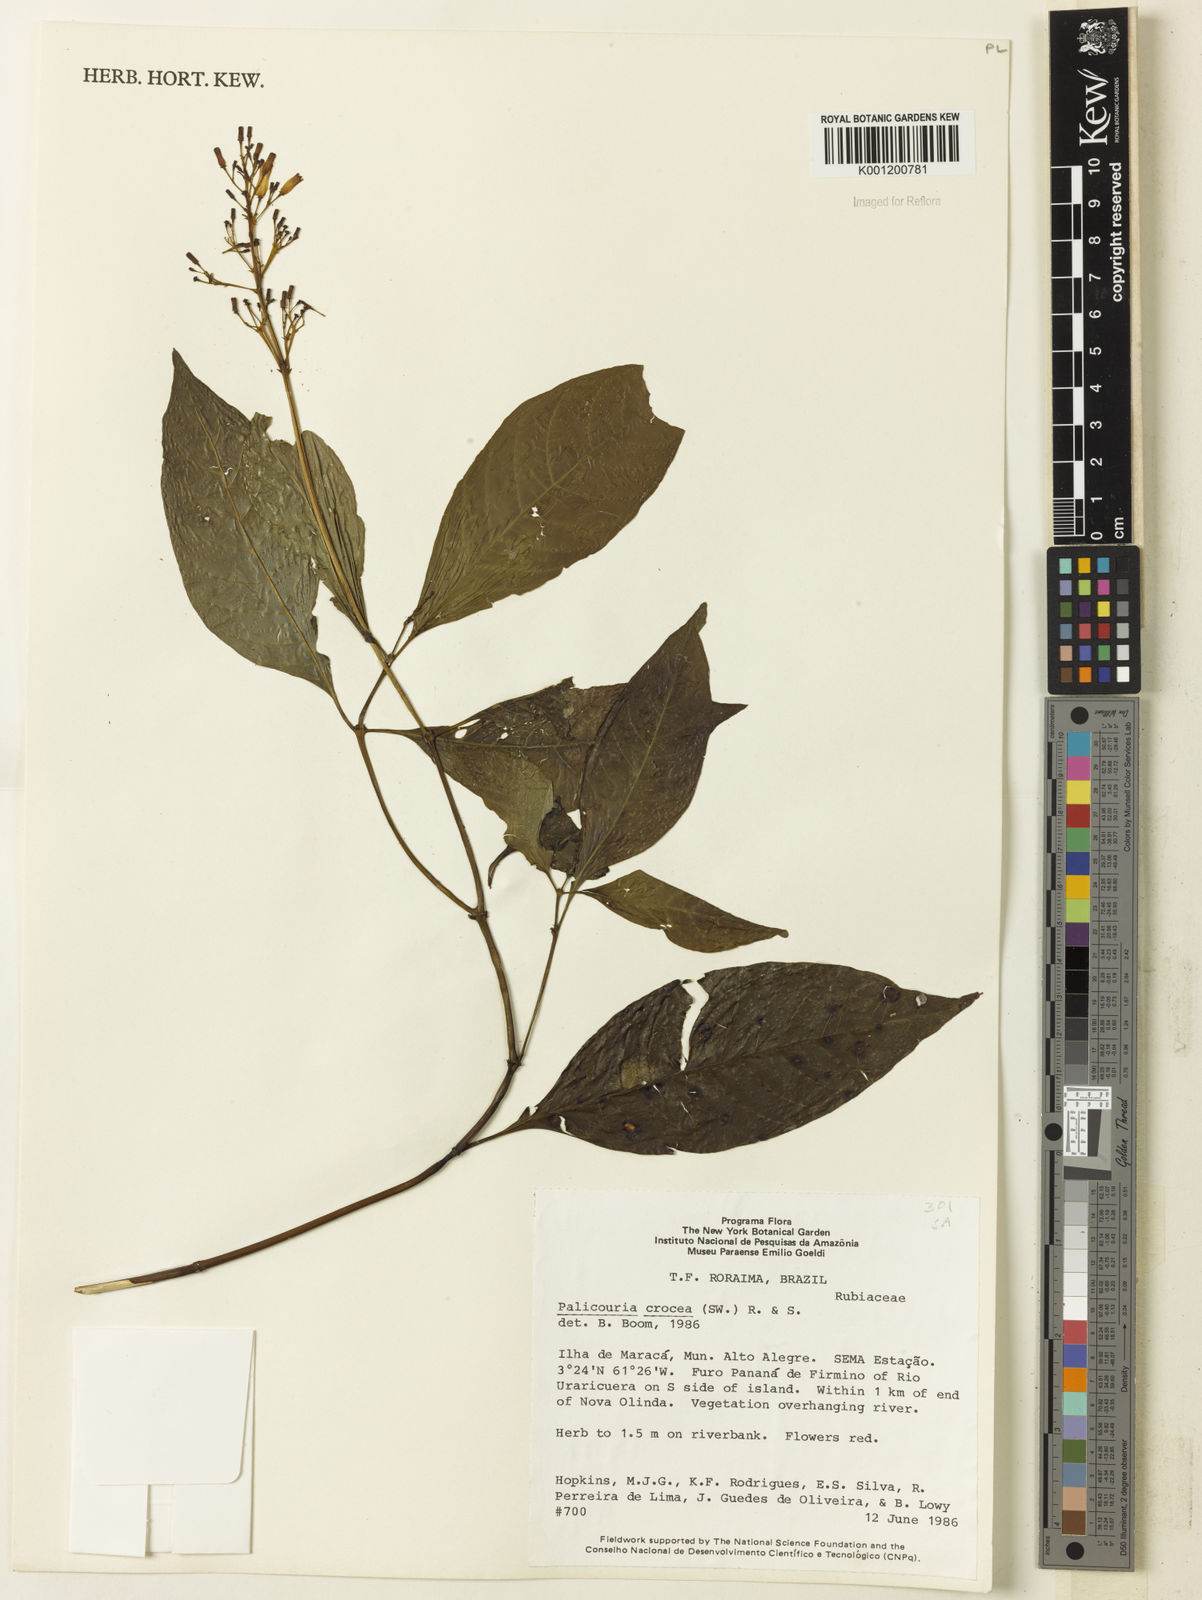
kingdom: Plantae
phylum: Tracheophyta
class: Magnoliopsida
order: Gentianales
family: Rubiaceae
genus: Palicourea
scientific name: Palicourea crocea
